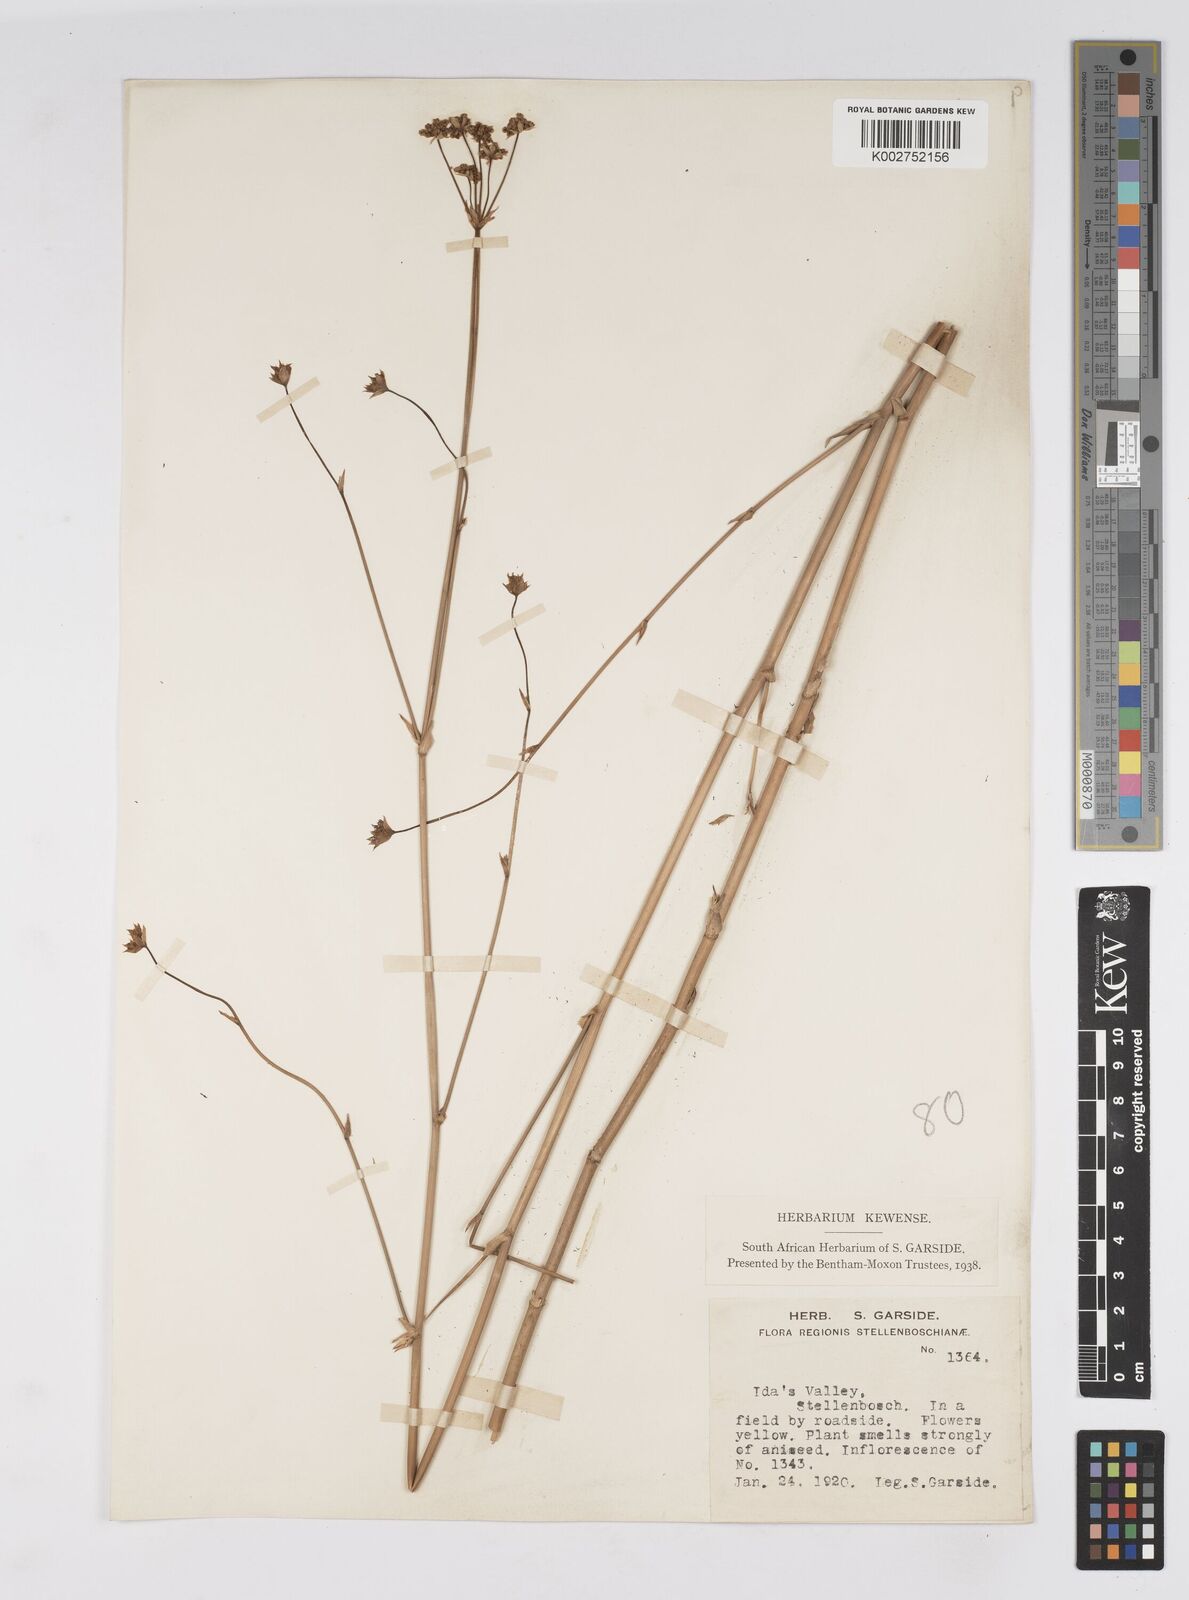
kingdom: Plantae
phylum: Tracheophyta
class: Magnoliopsida
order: Apiales
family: Apiaceae
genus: Lichtensteinia
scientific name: Lichtensteinia
